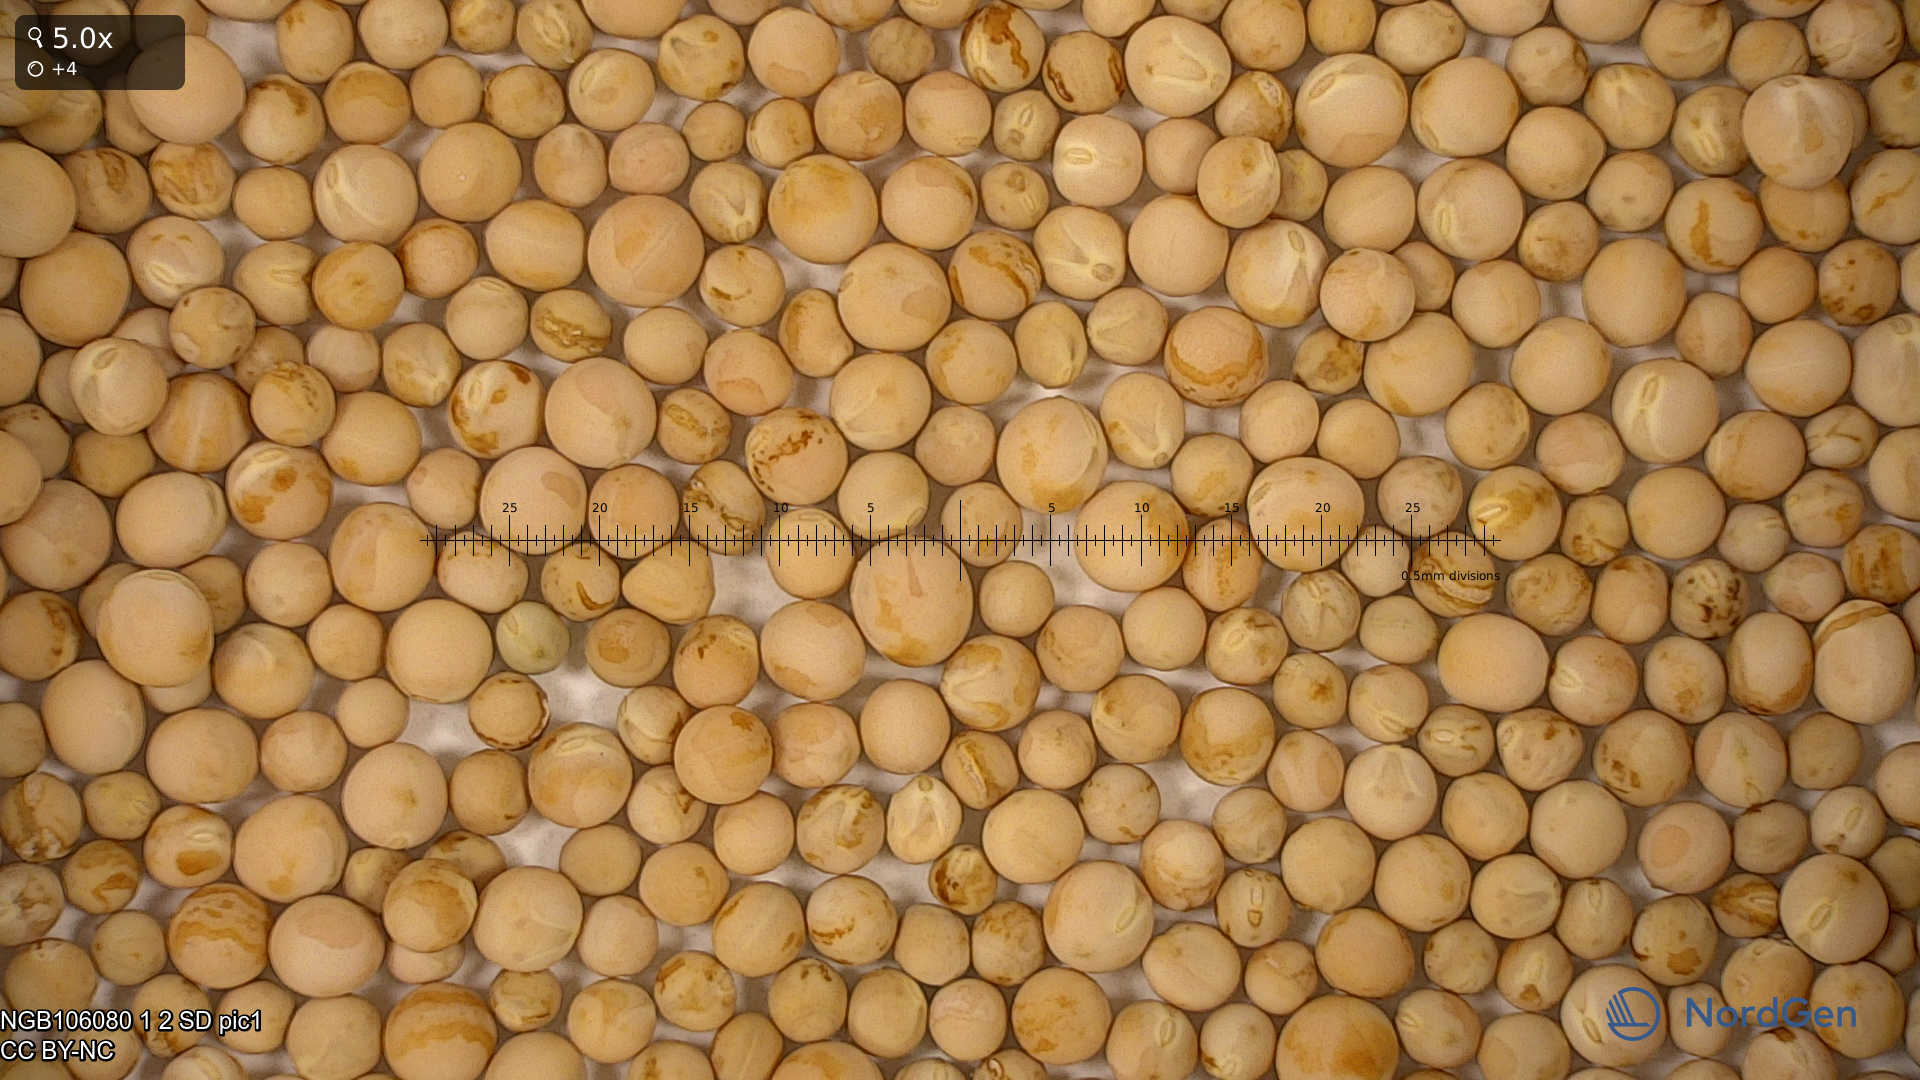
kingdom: Plantae
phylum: Tracheophyta
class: Magnoliopsida
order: Fabales
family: Fabaceae
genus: Lathyrus
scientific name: Lathyrus oleraceus
